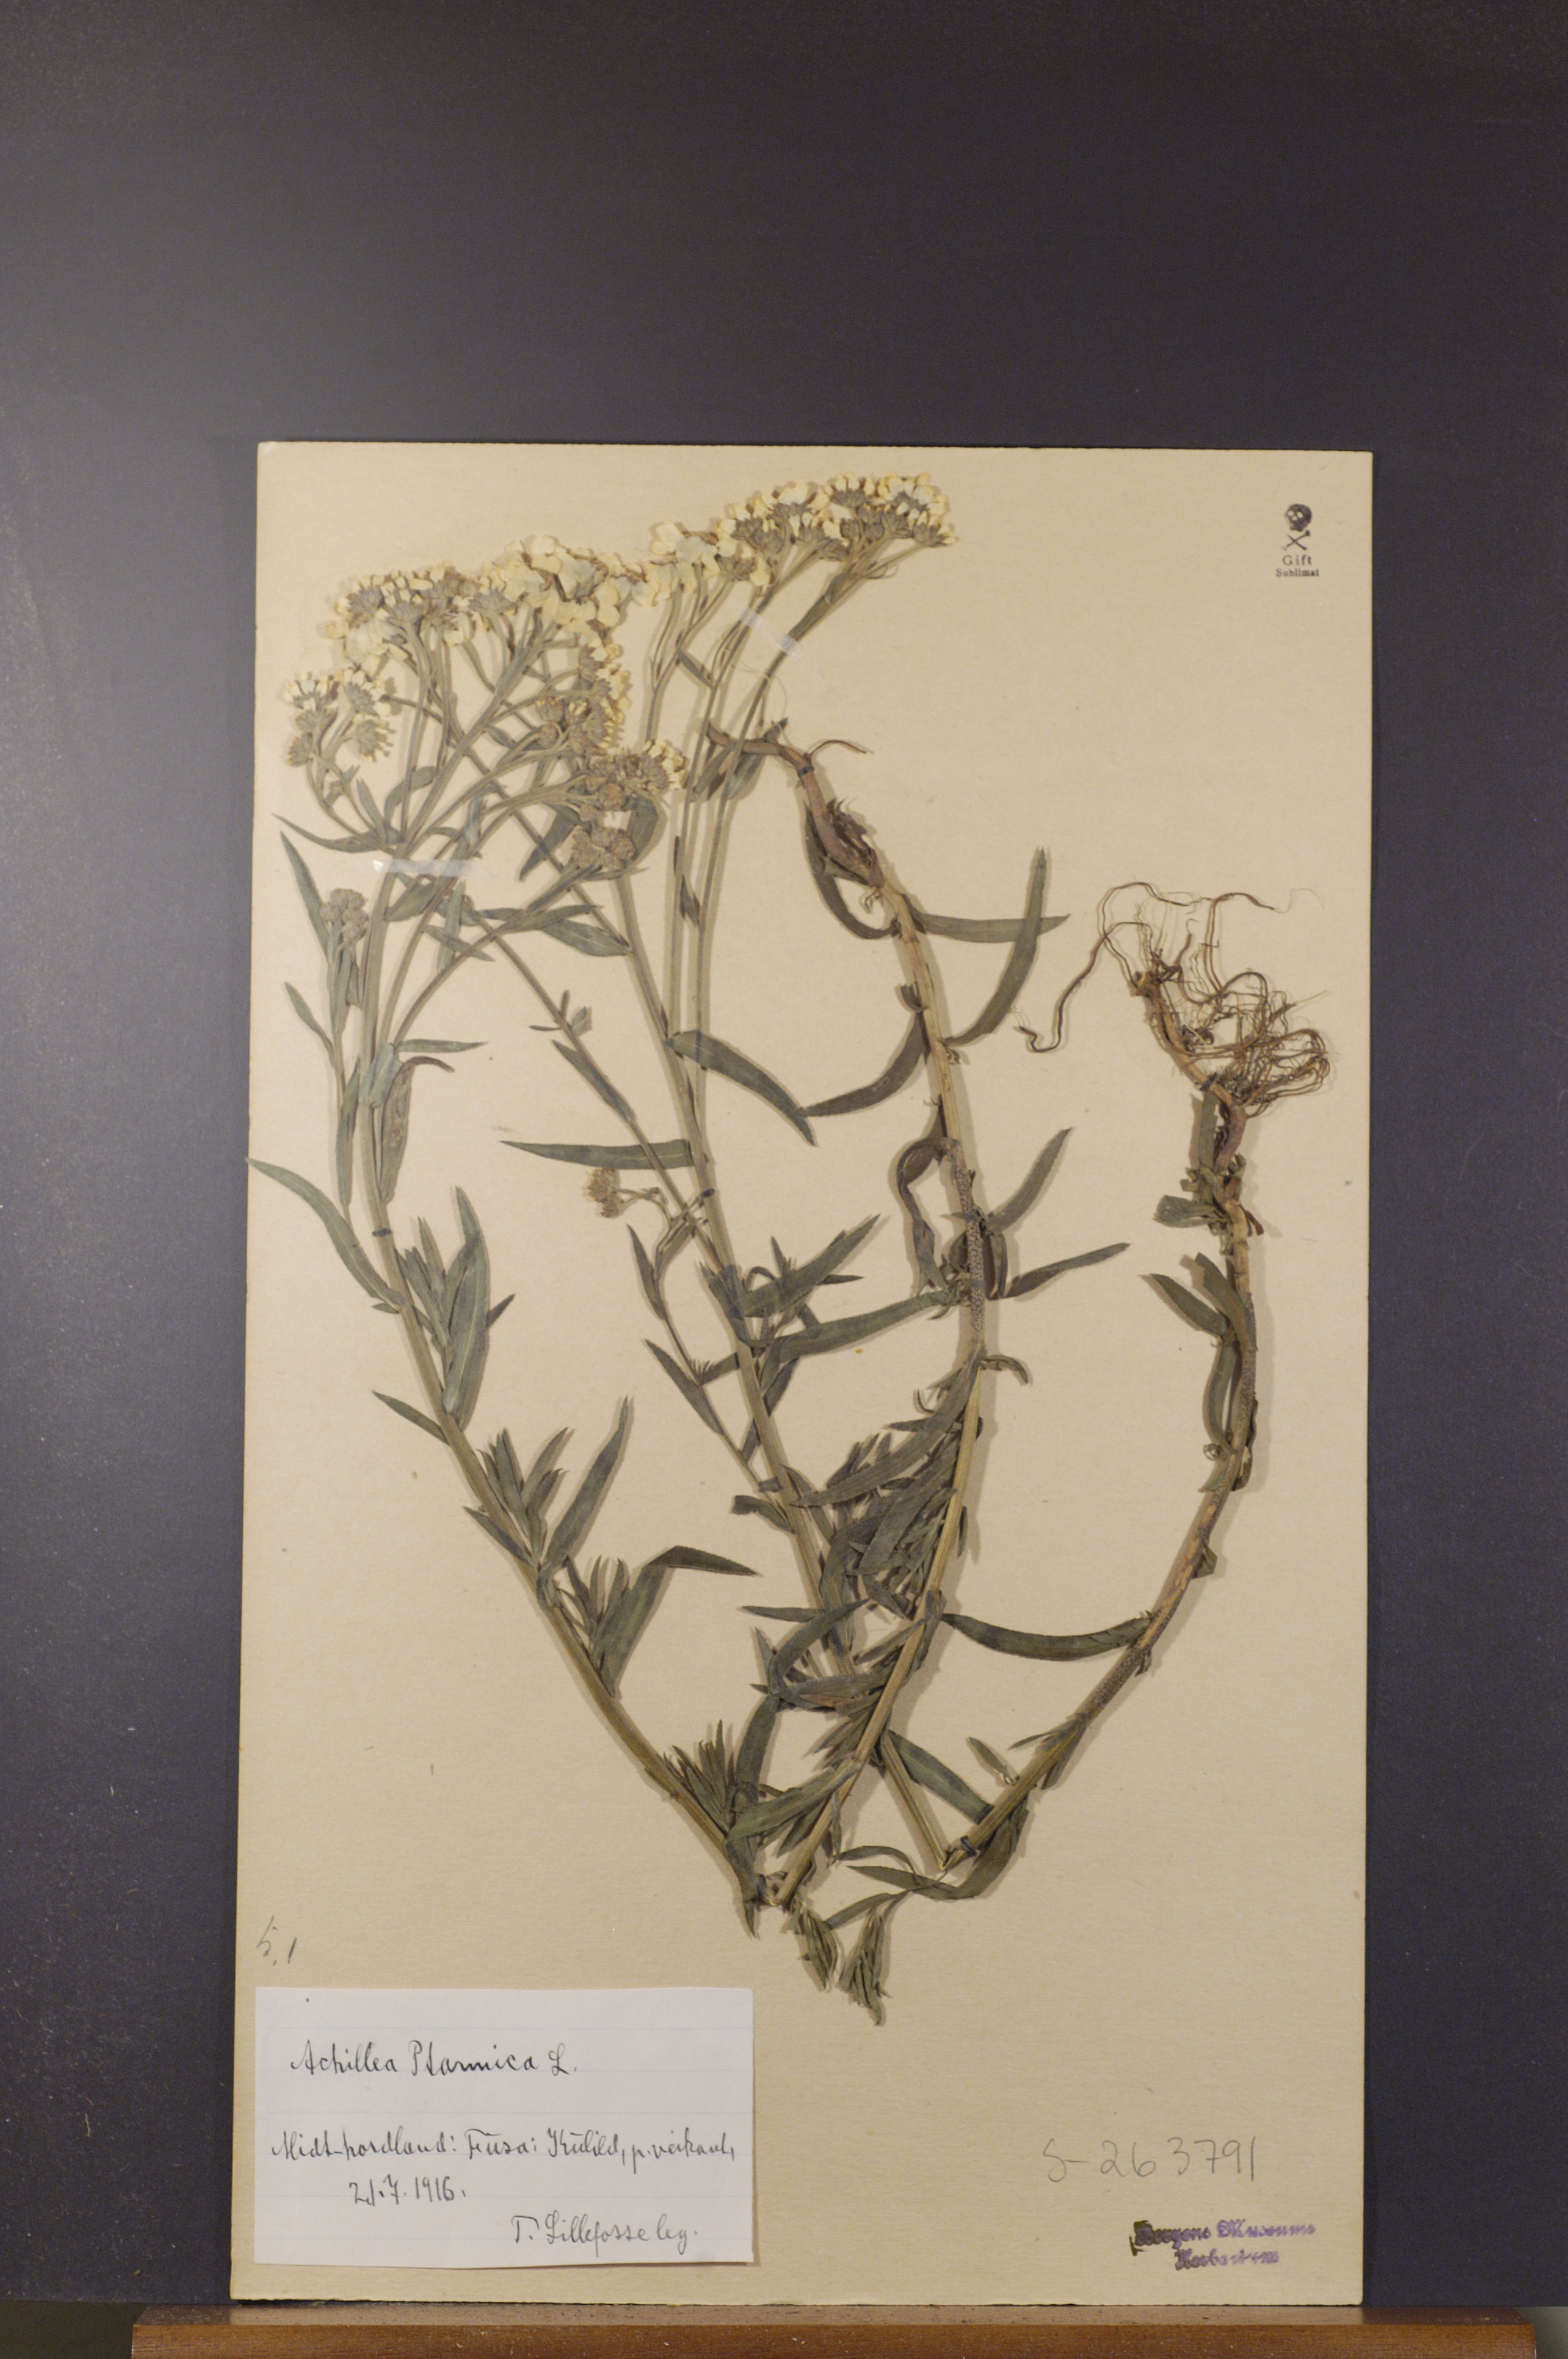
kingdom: Plantae
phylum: Tracheophyta
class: Magnoliopsida
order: Asterales
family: Asteraceae
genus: Achillea
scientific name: Achillea ptarmica
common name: Sneezeweed
